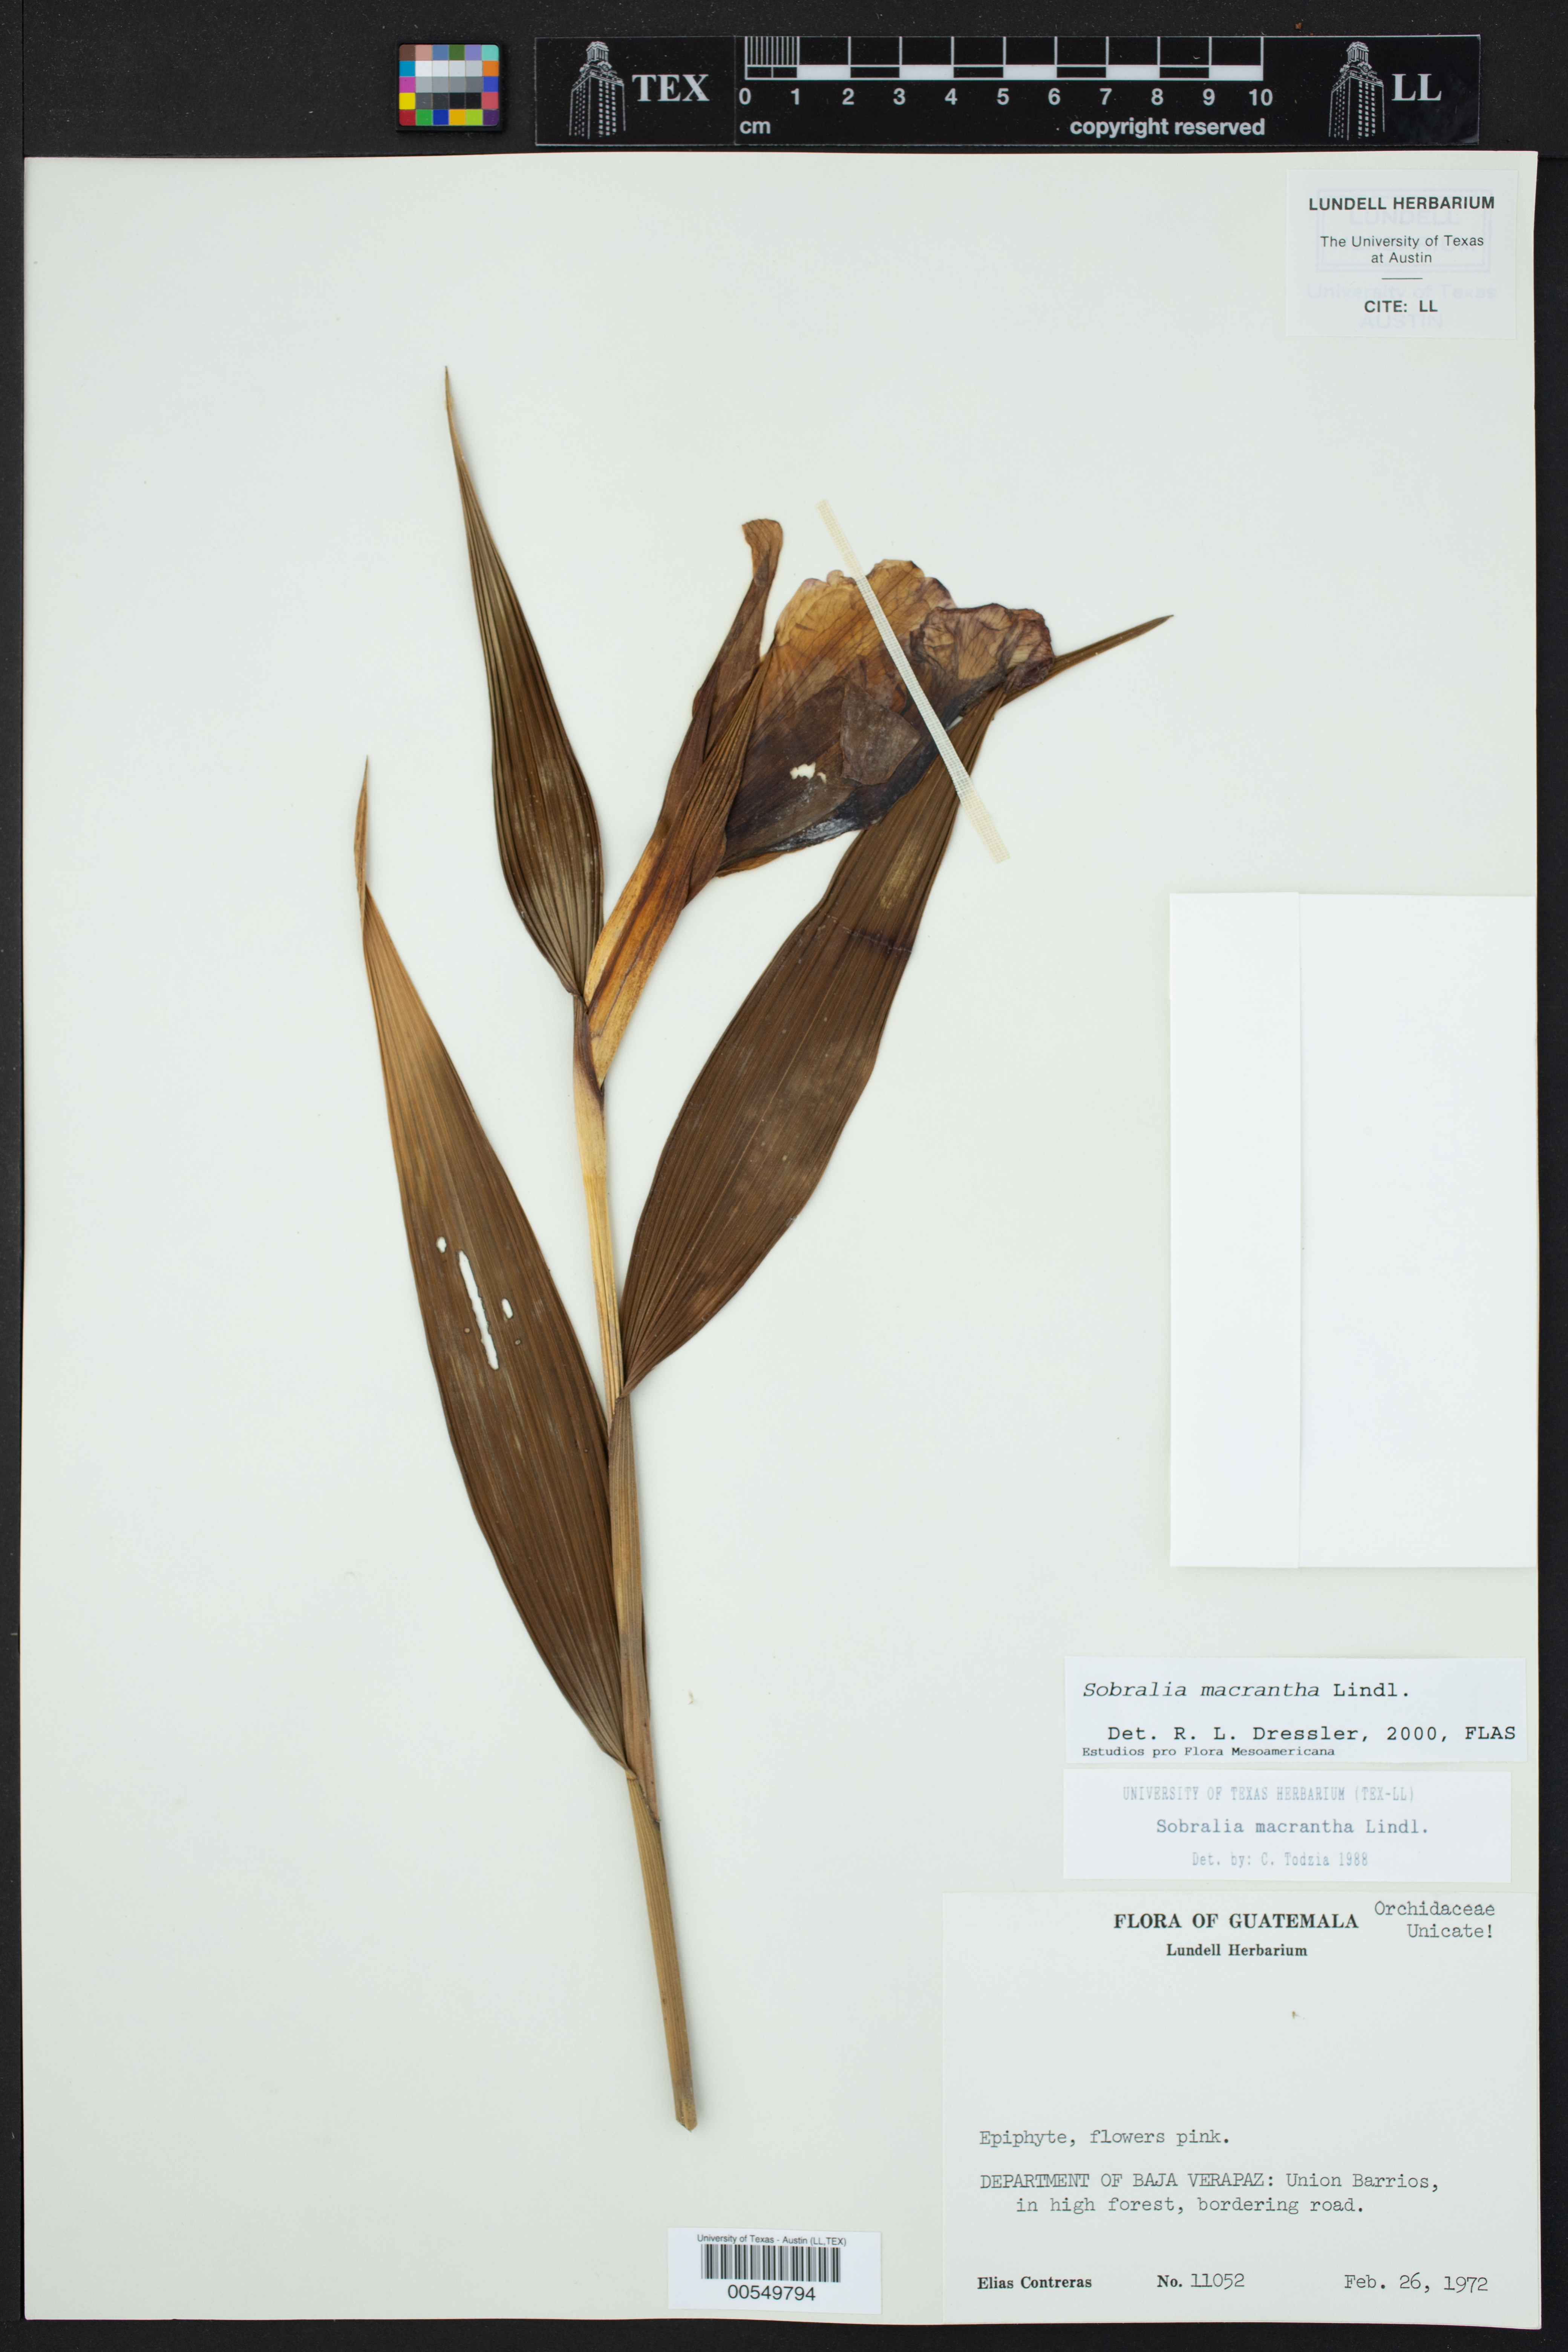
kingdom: Plantae
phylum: Tracheophyta
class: Liliopsida
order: Asparagales
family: Orchidaceae
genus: Sobralia
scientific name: Sobralia macrantha
